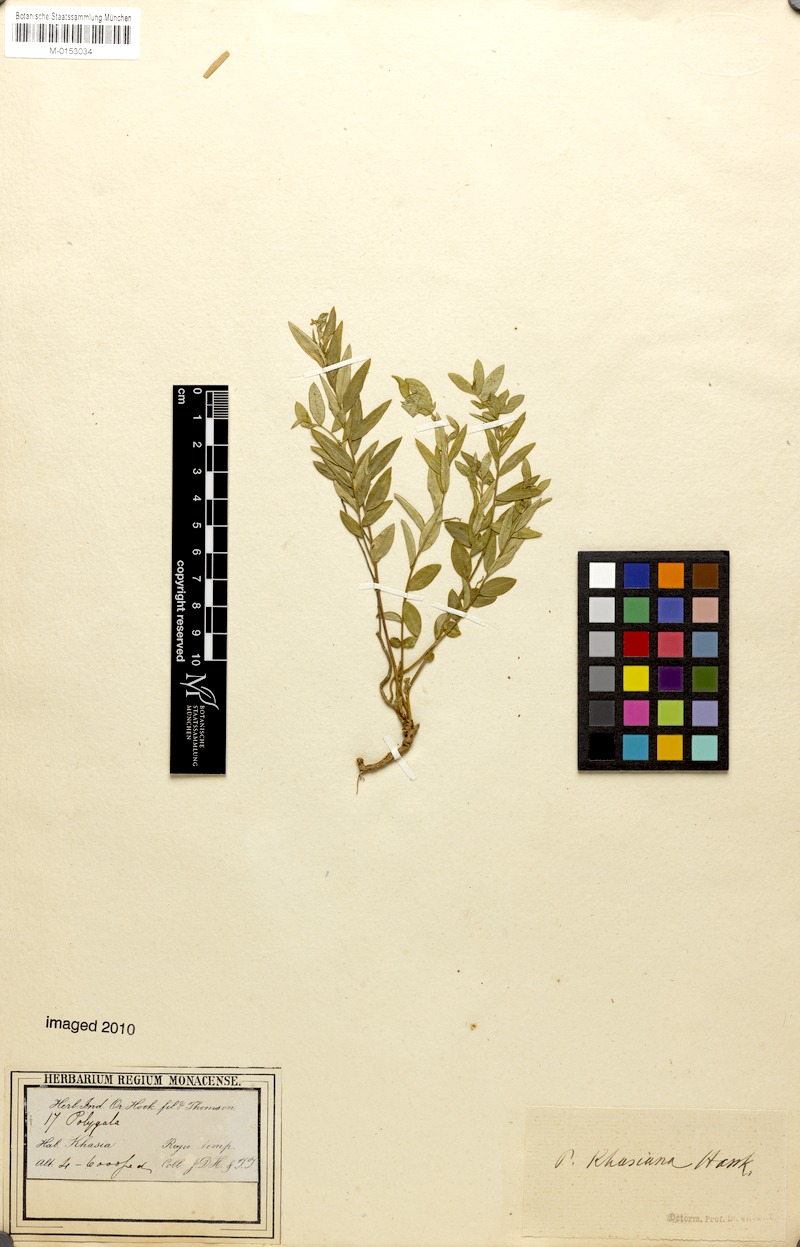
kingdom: Plantae
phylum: Tracheophyta
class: Magnoliopsida
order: Fabales
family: Polygalaceae
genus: Polygala
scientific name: Polygala khasiana
